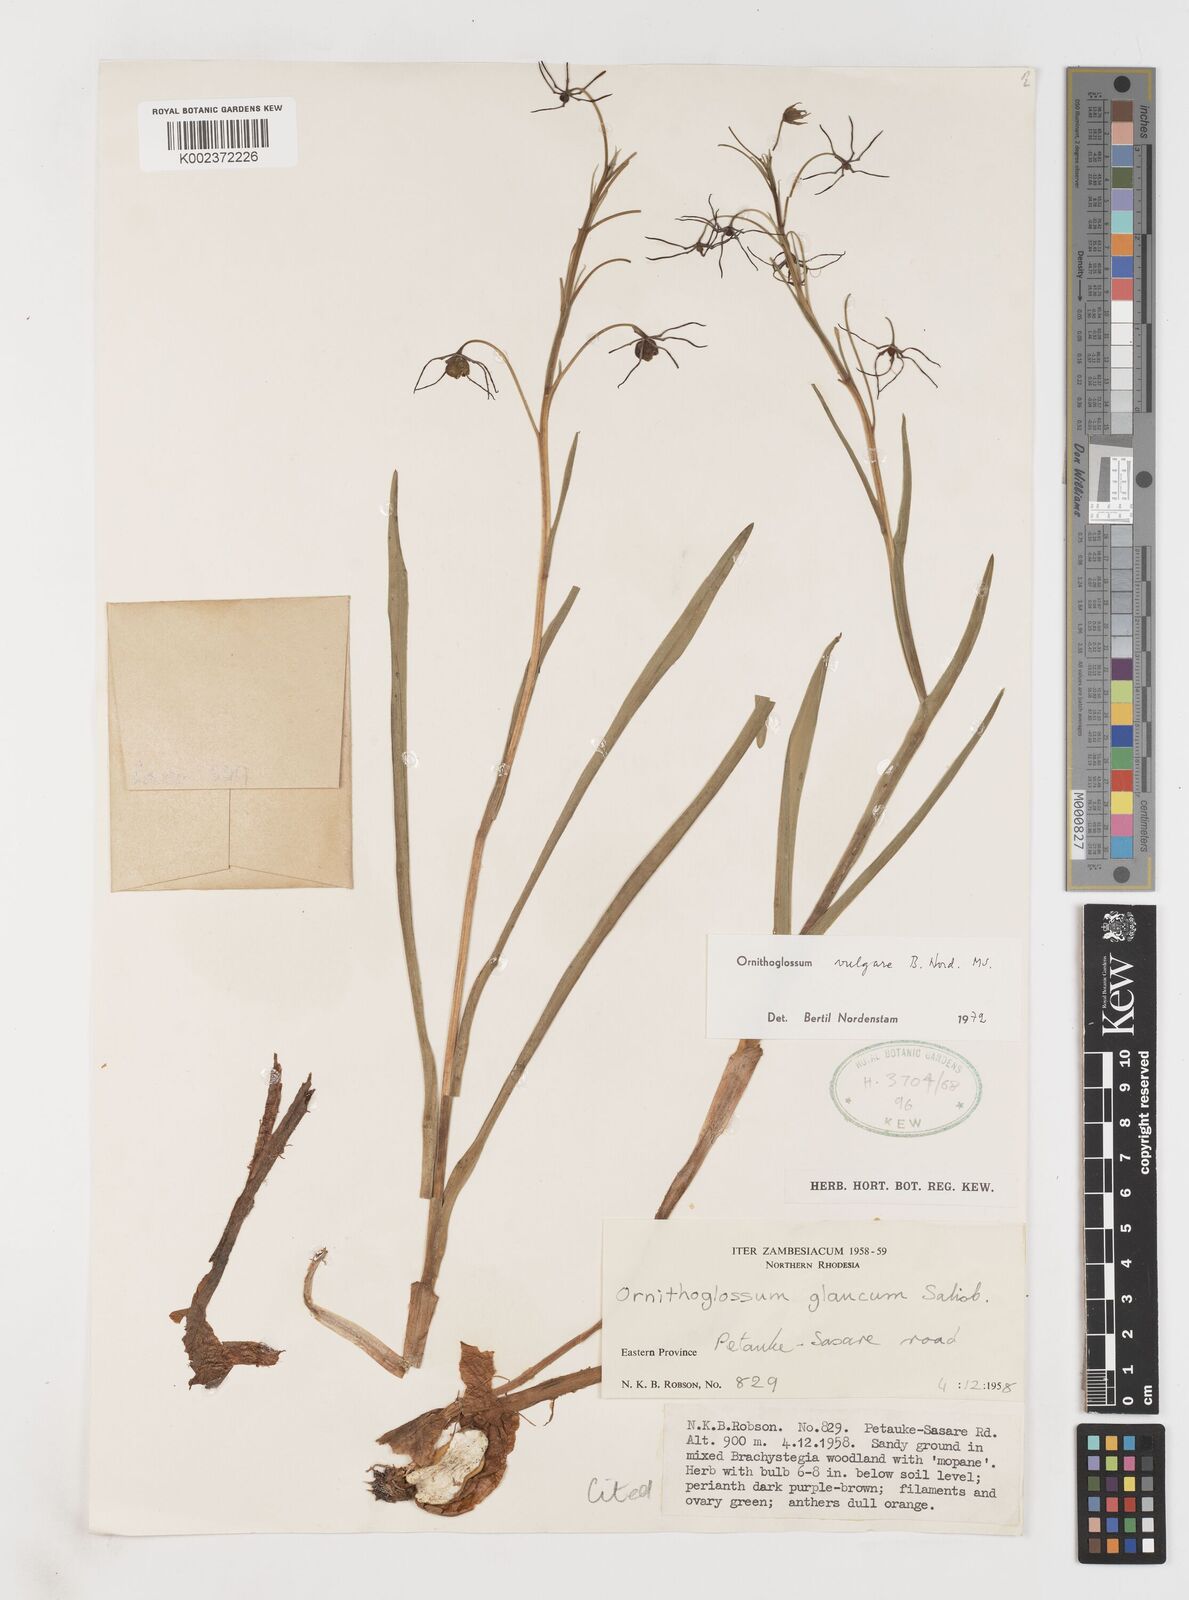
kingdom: Plantae
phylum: Tracheophyta
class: Liliopsida
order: Liliales
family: Colchicaceae
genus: Ornithoglossum
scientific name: Ornithoglossum vulgare
